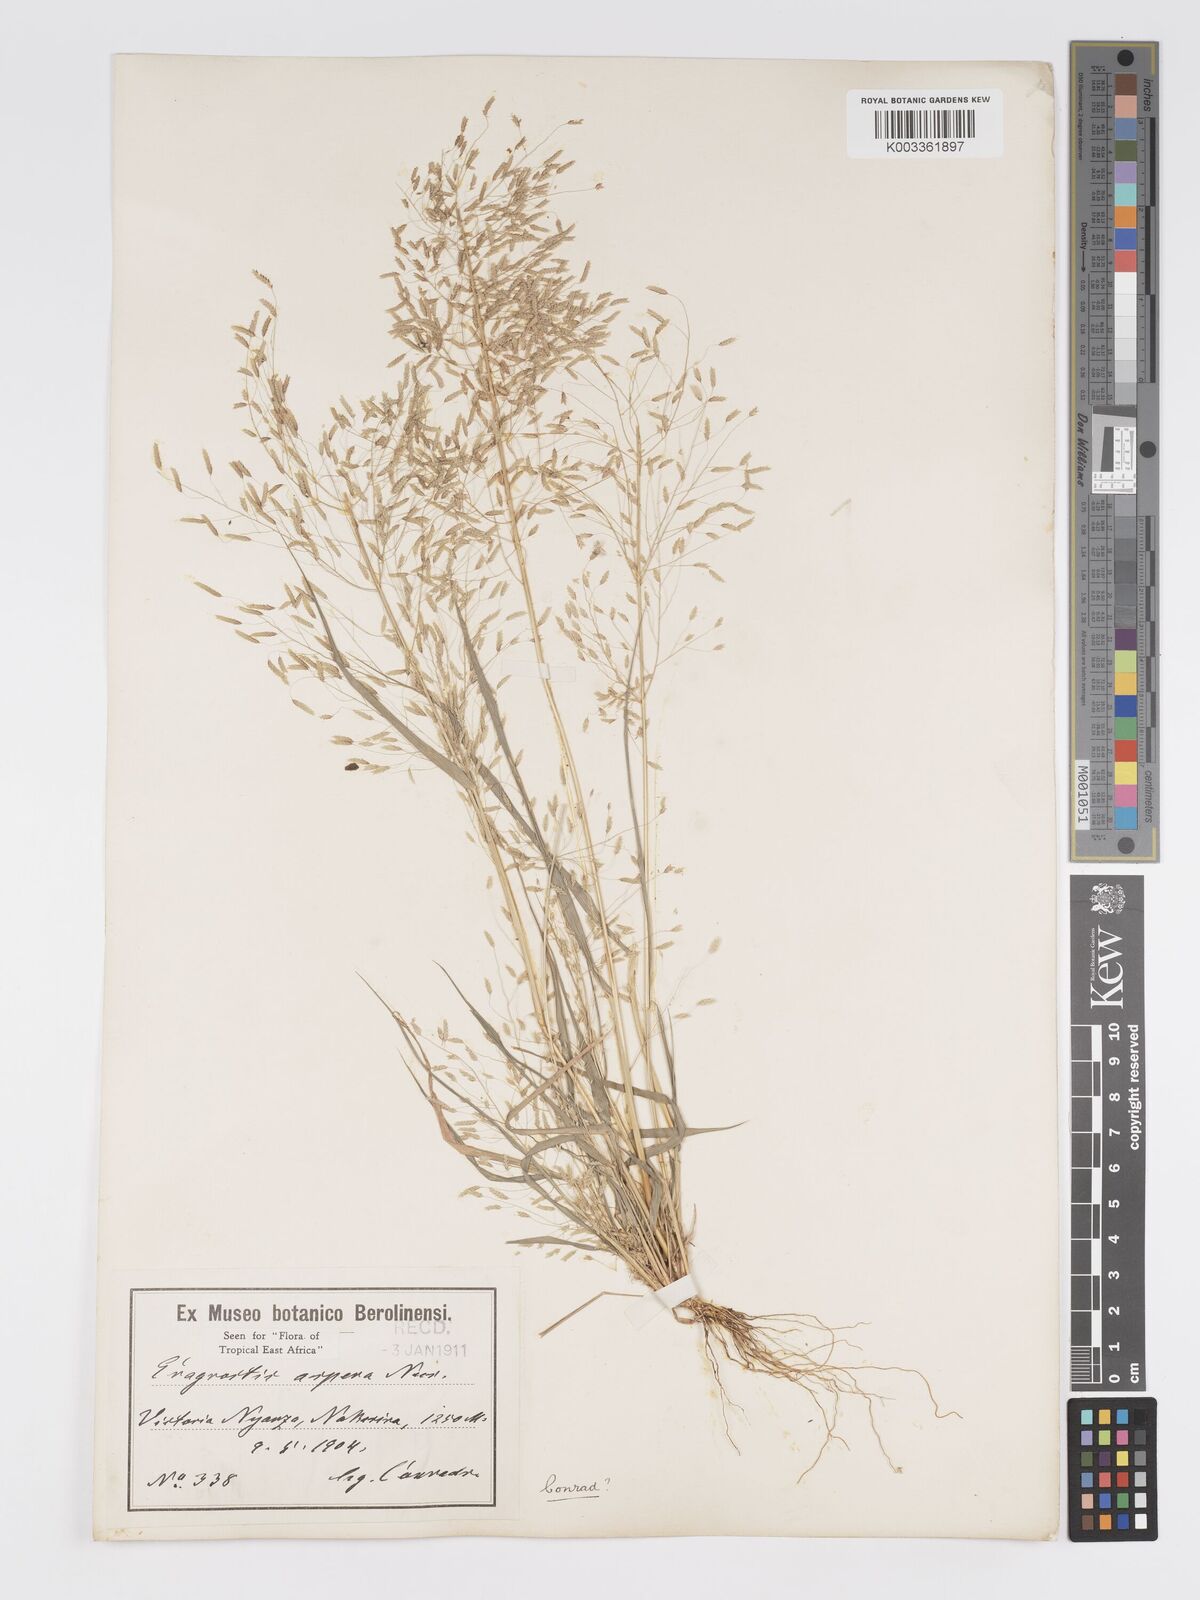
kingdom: Plantae
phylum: Tracheophyta
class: Liliopsida
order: Poales
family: Poaceae
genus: Eragrostis
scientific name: Eragrostis aspera
